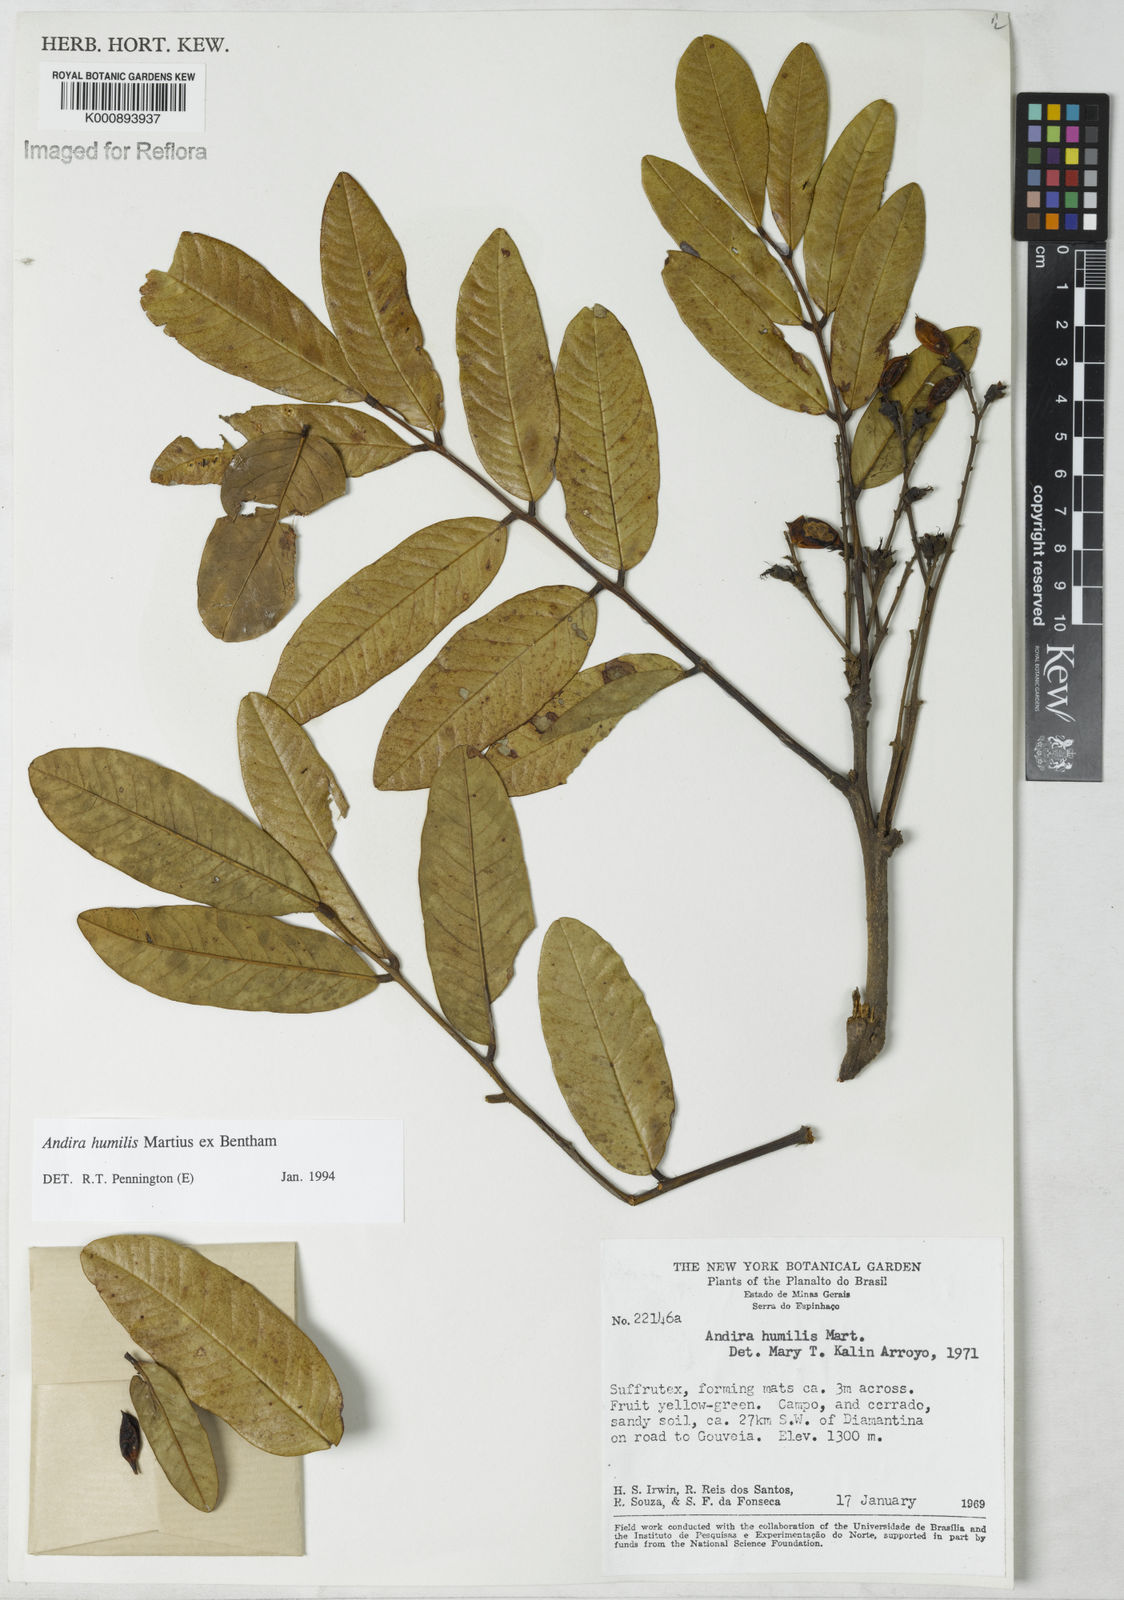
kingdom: Plantae
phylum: Tracheophyta
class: Magnoliopsida
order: Fabales
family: Fabaceae
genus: Andira
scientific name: Andira humilis
